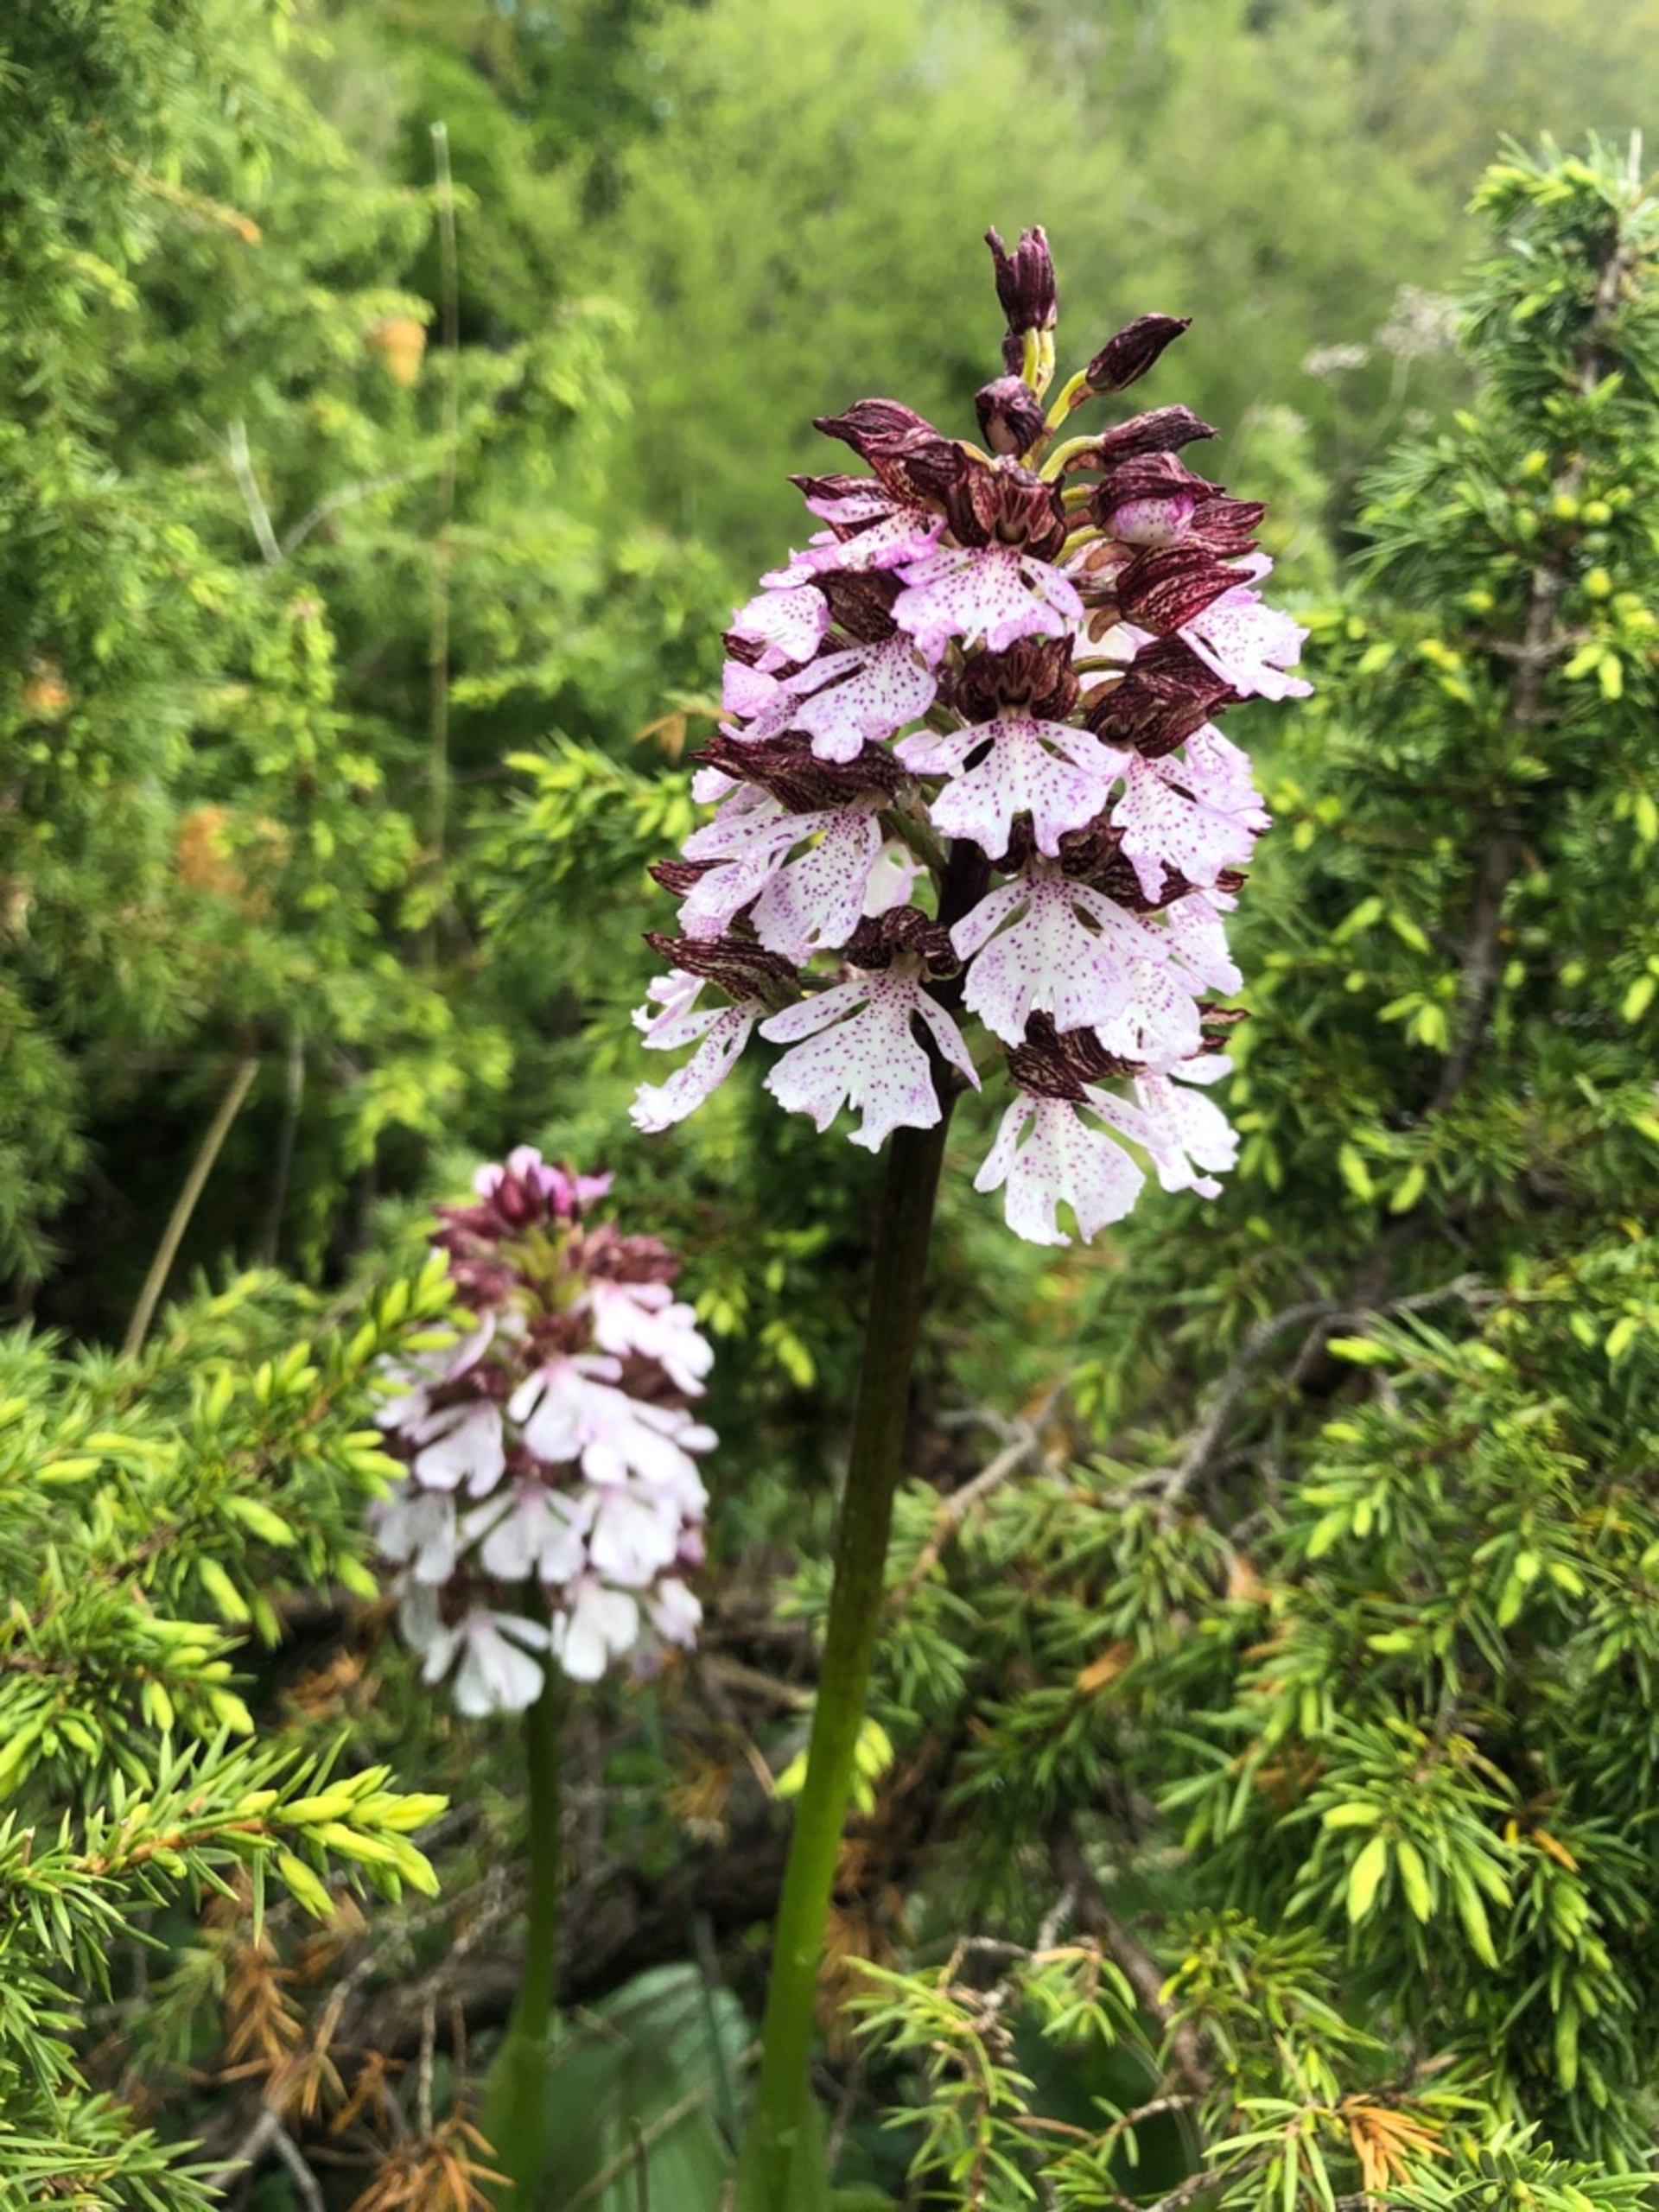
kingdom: Plantae
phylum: Tracheophyta
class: Liliopsida
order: Asparagales
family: Orchidaceae
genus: Orchis
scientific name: Orchis purpurea
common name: Stor gøgeurt
